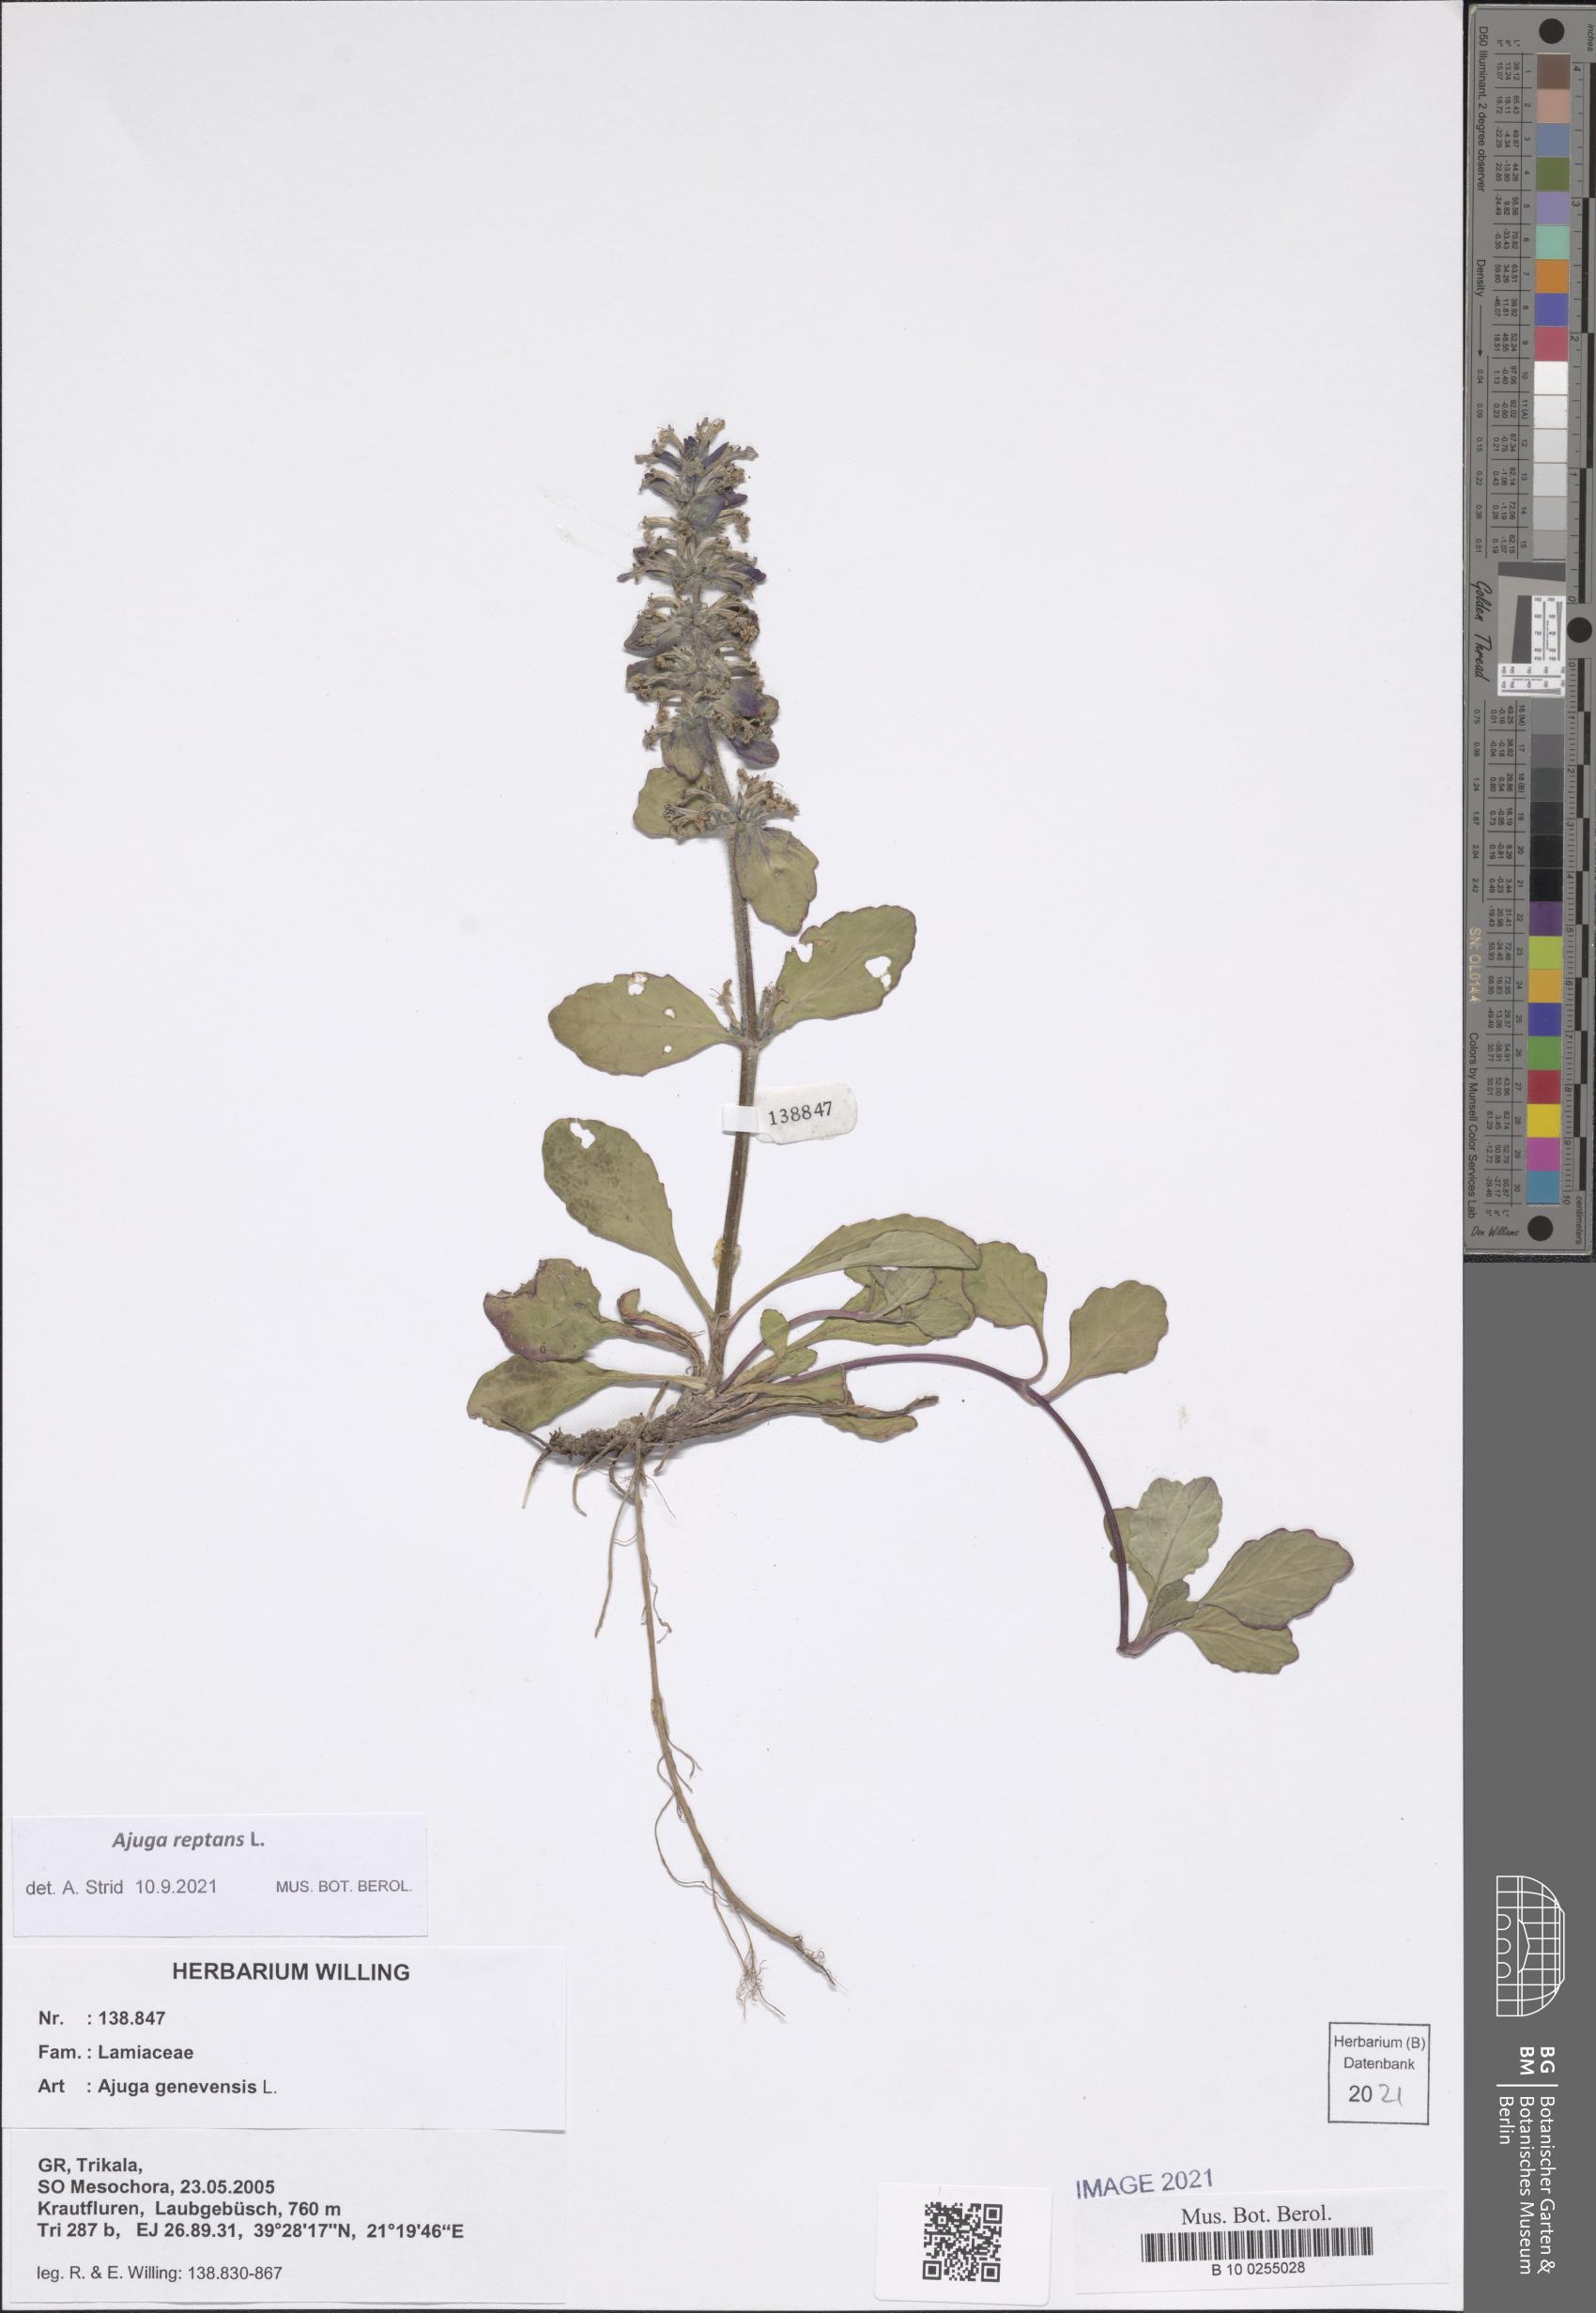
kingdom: Plantae
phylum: Tracheophyta
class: Magnoliopsida
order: Lamiales
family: Lamiaceae
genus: Ajuga
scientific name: Ajuga reptans
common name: Bugle
